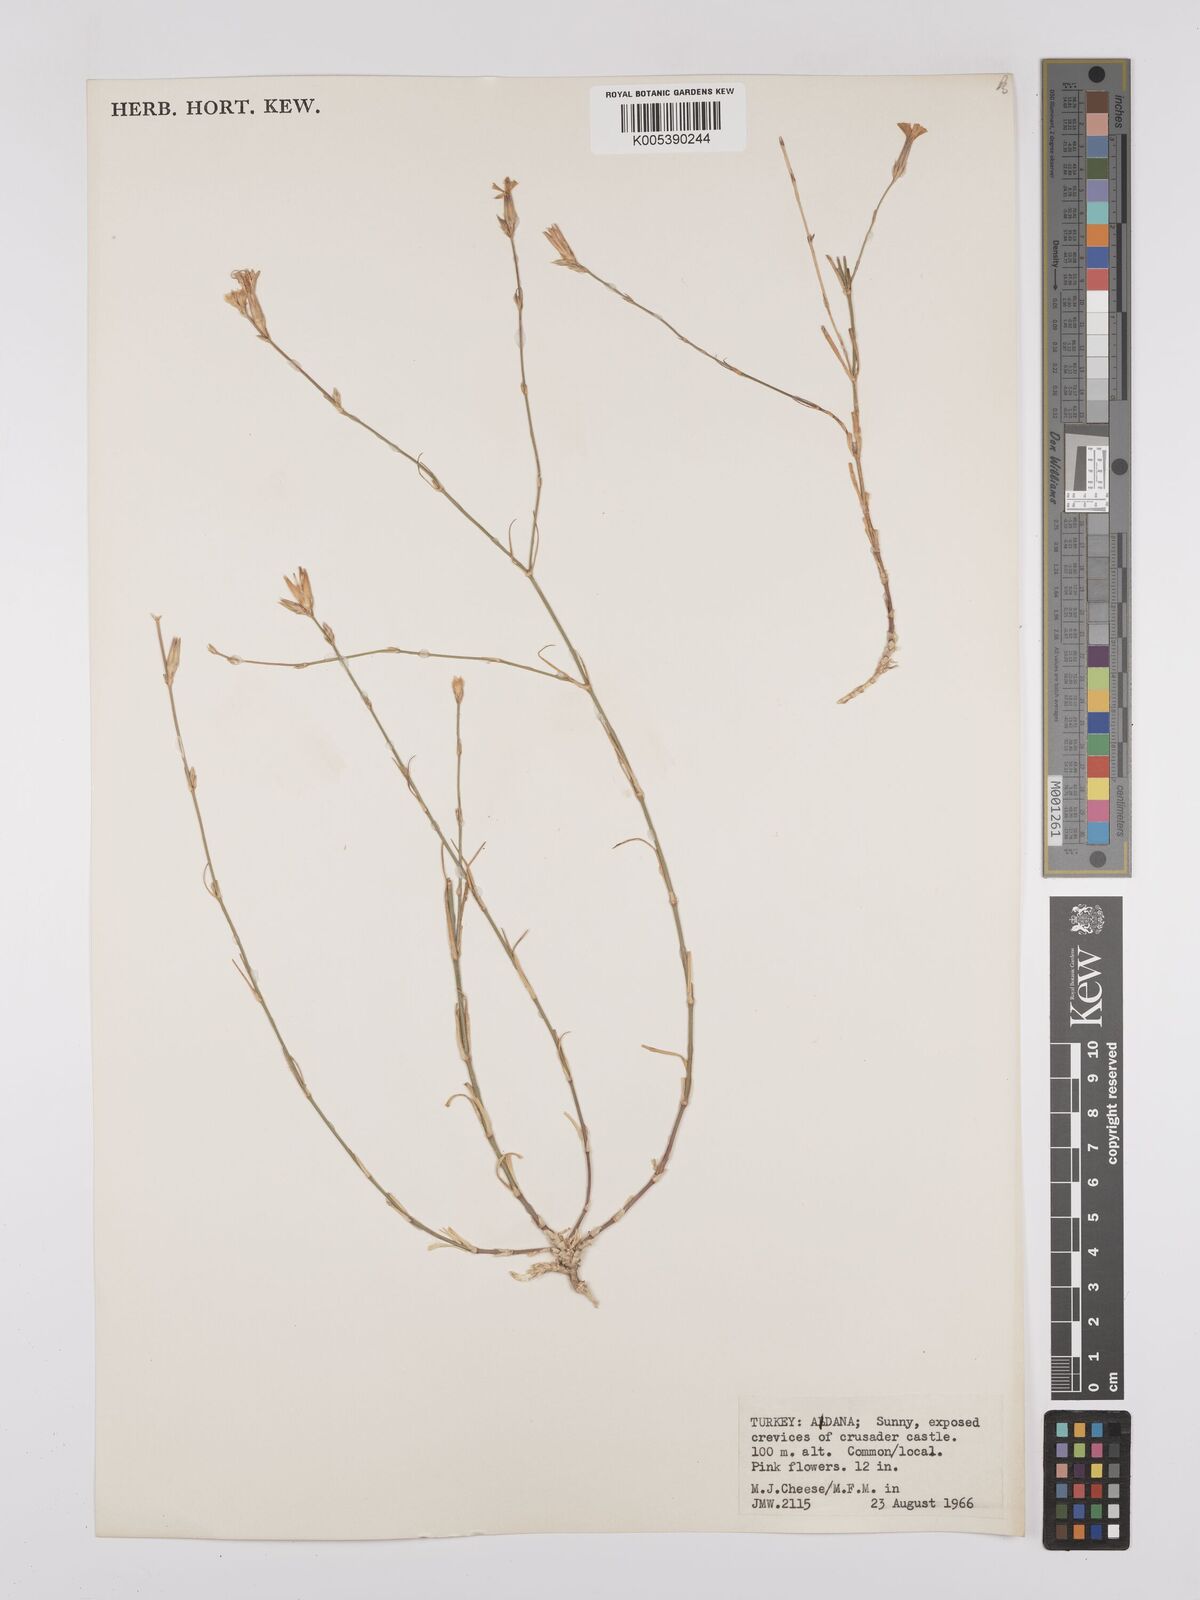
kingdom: Plantae
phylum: Tracheophyta
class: Magnoliopsida
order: Caryophyllales
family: Caryophyllaceae
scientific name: Caryophyllaceae
